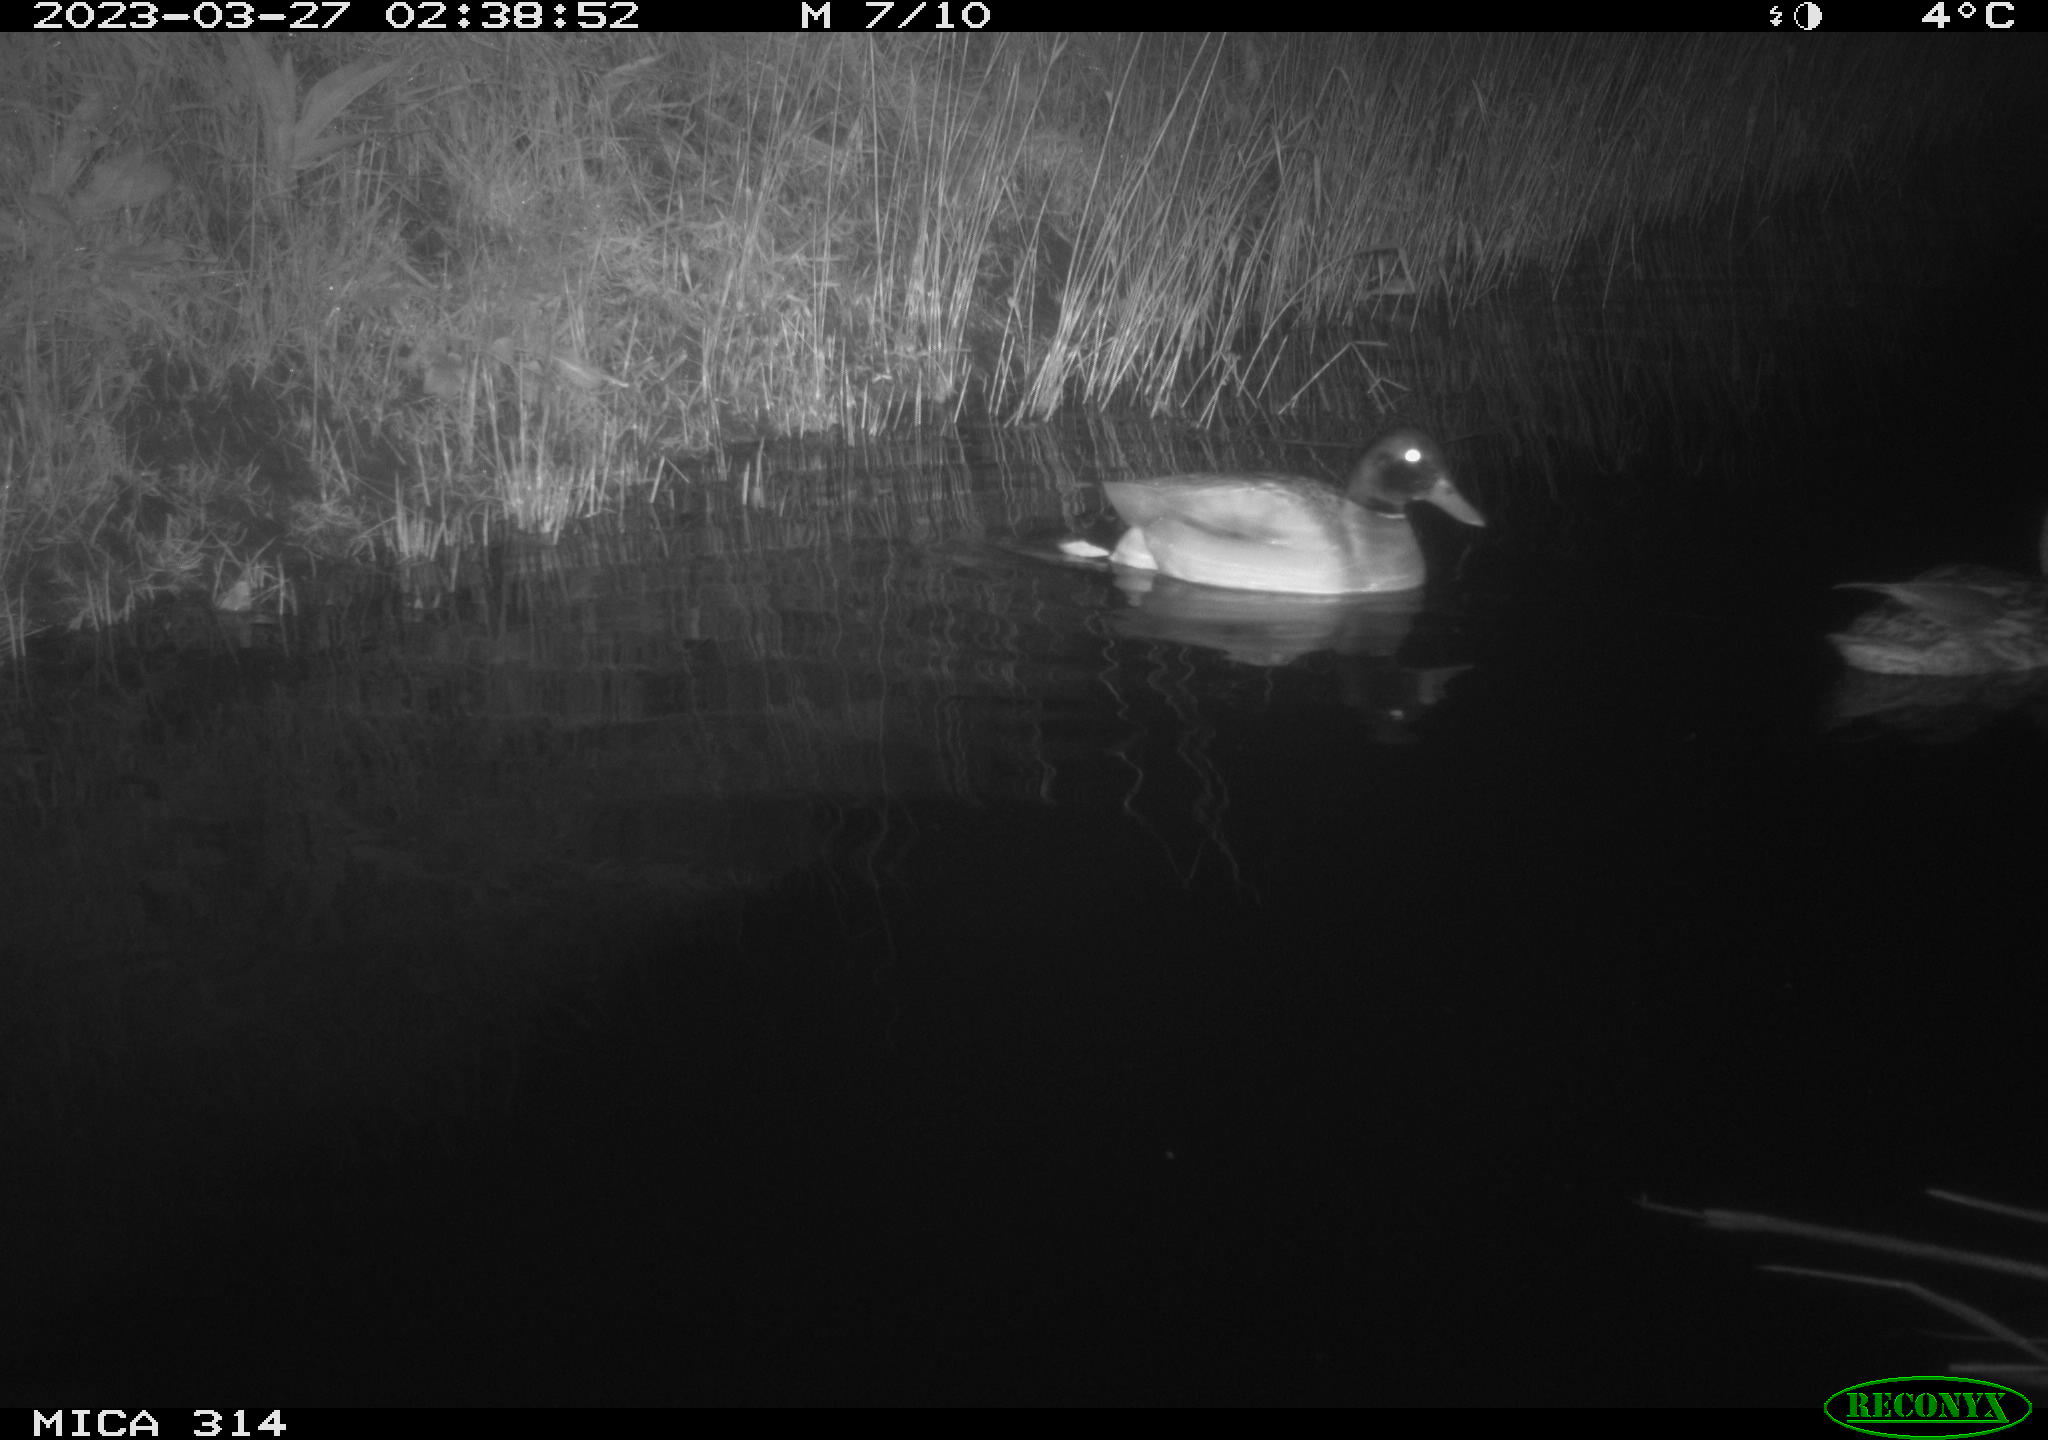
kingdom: Animalia
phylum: Chordata
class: Aves
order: Anseriformes
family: Anatidae
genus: Anas
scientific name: Anas
